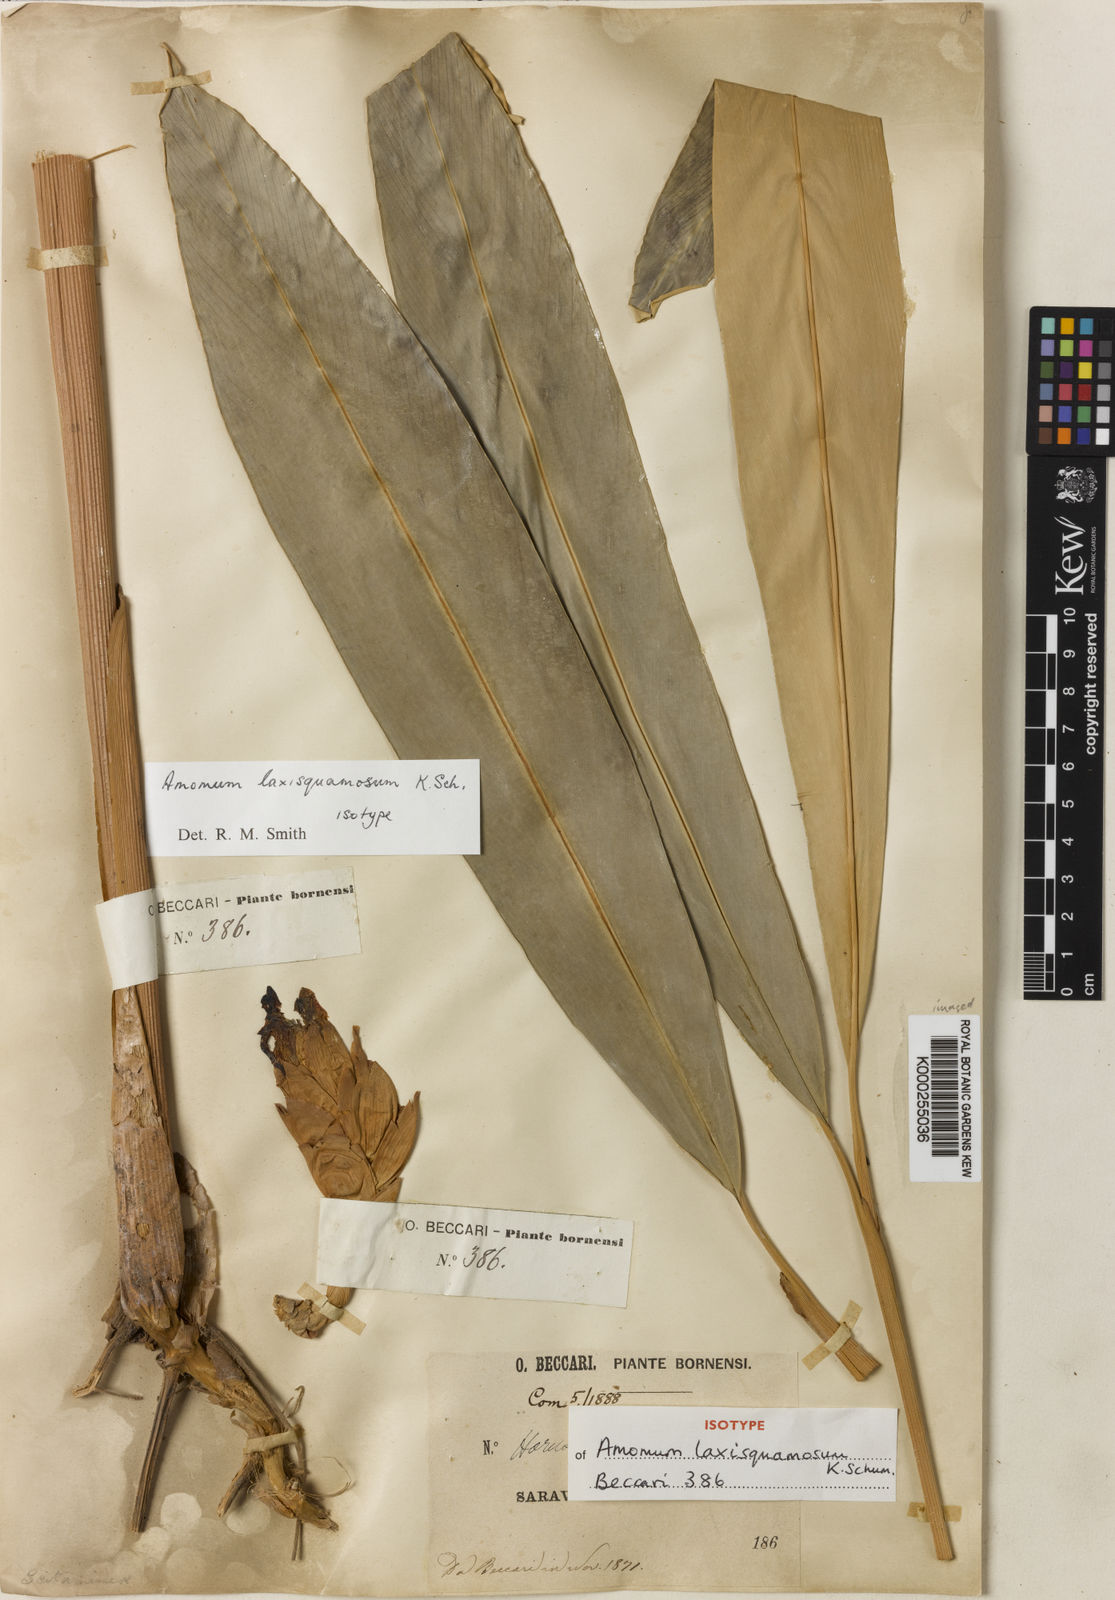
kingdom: Plantae
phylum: Tracheophyta
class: Liliopsida
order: Zingiberales
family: Zingiberaceae
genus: Amomum
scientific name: Amomum
